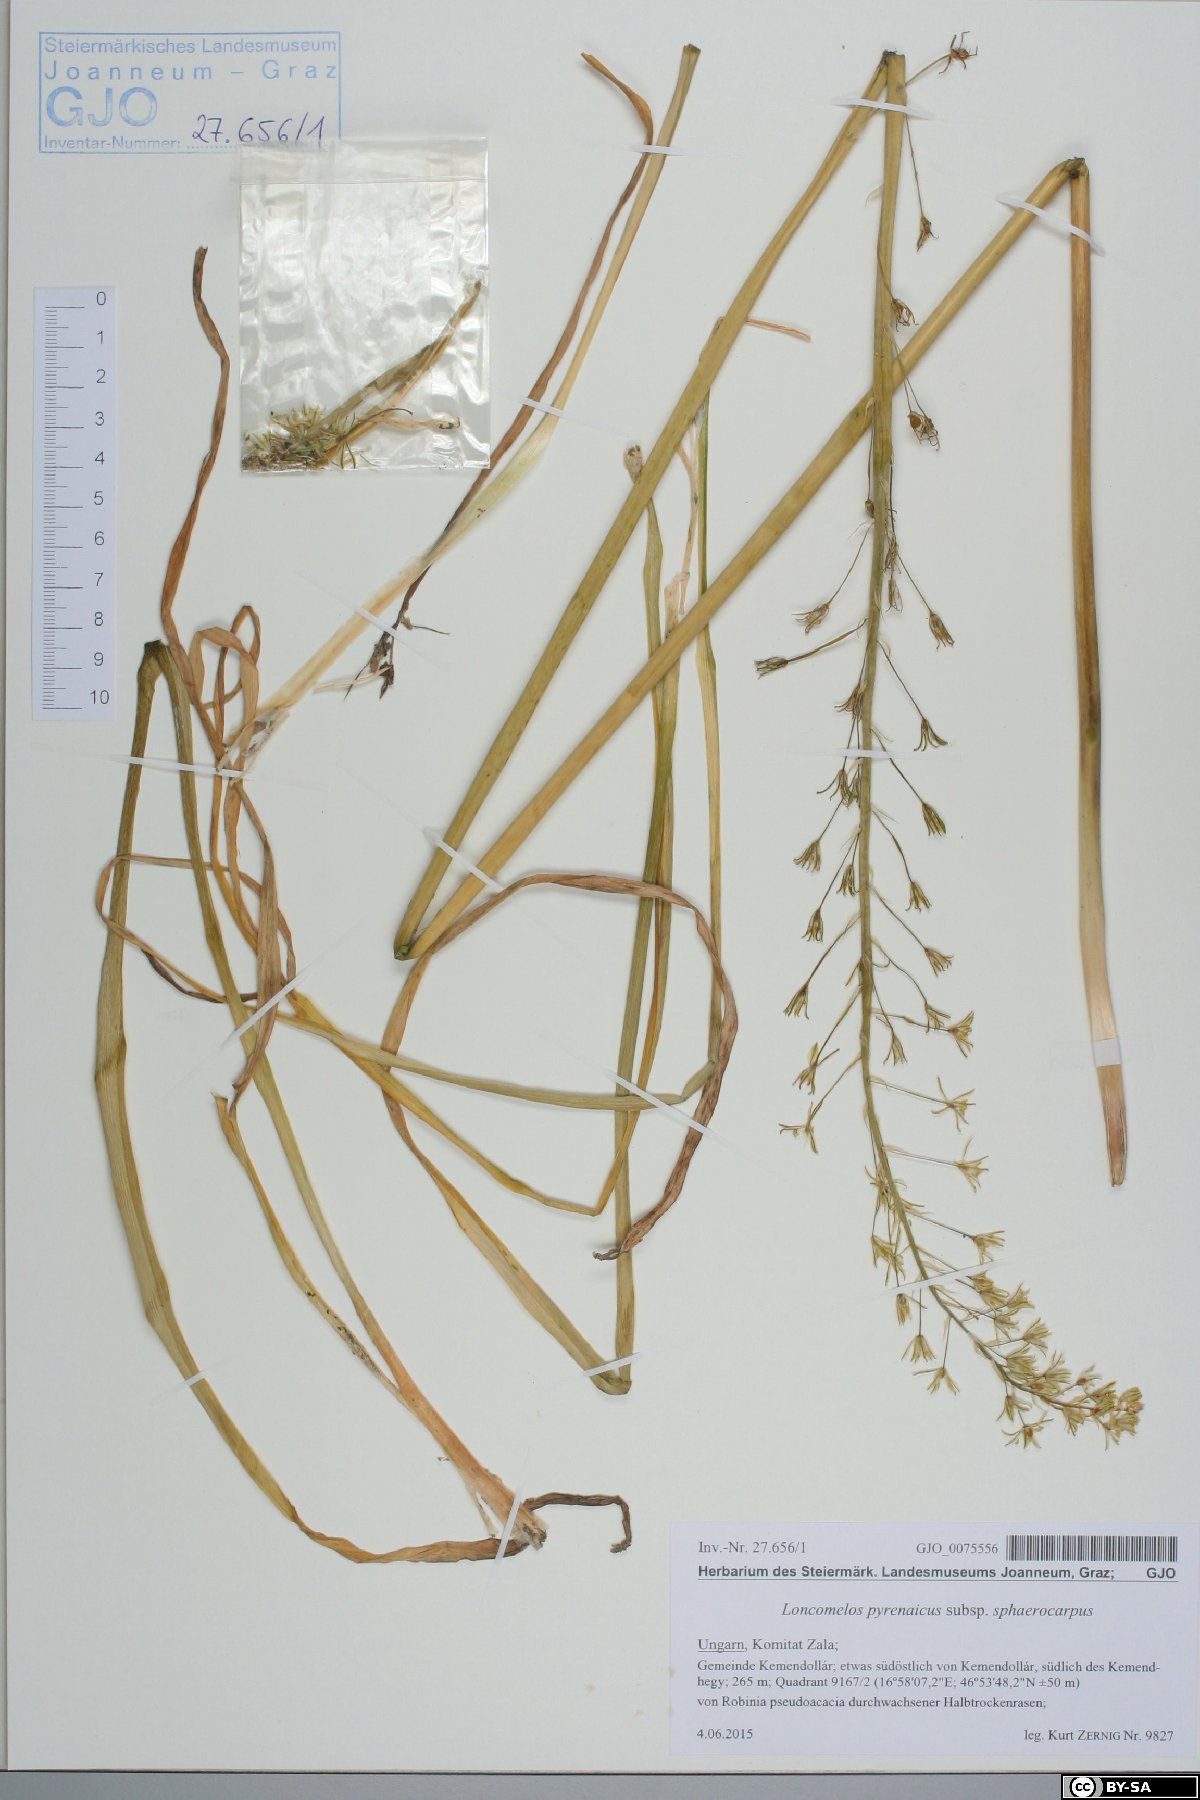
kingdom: Plantae
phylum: Tracheophyta
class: Liliopsida
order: Asparagales
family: Asparagaceae
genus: Ornithogalum
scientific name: Ornithogalum sphaerocarpum
